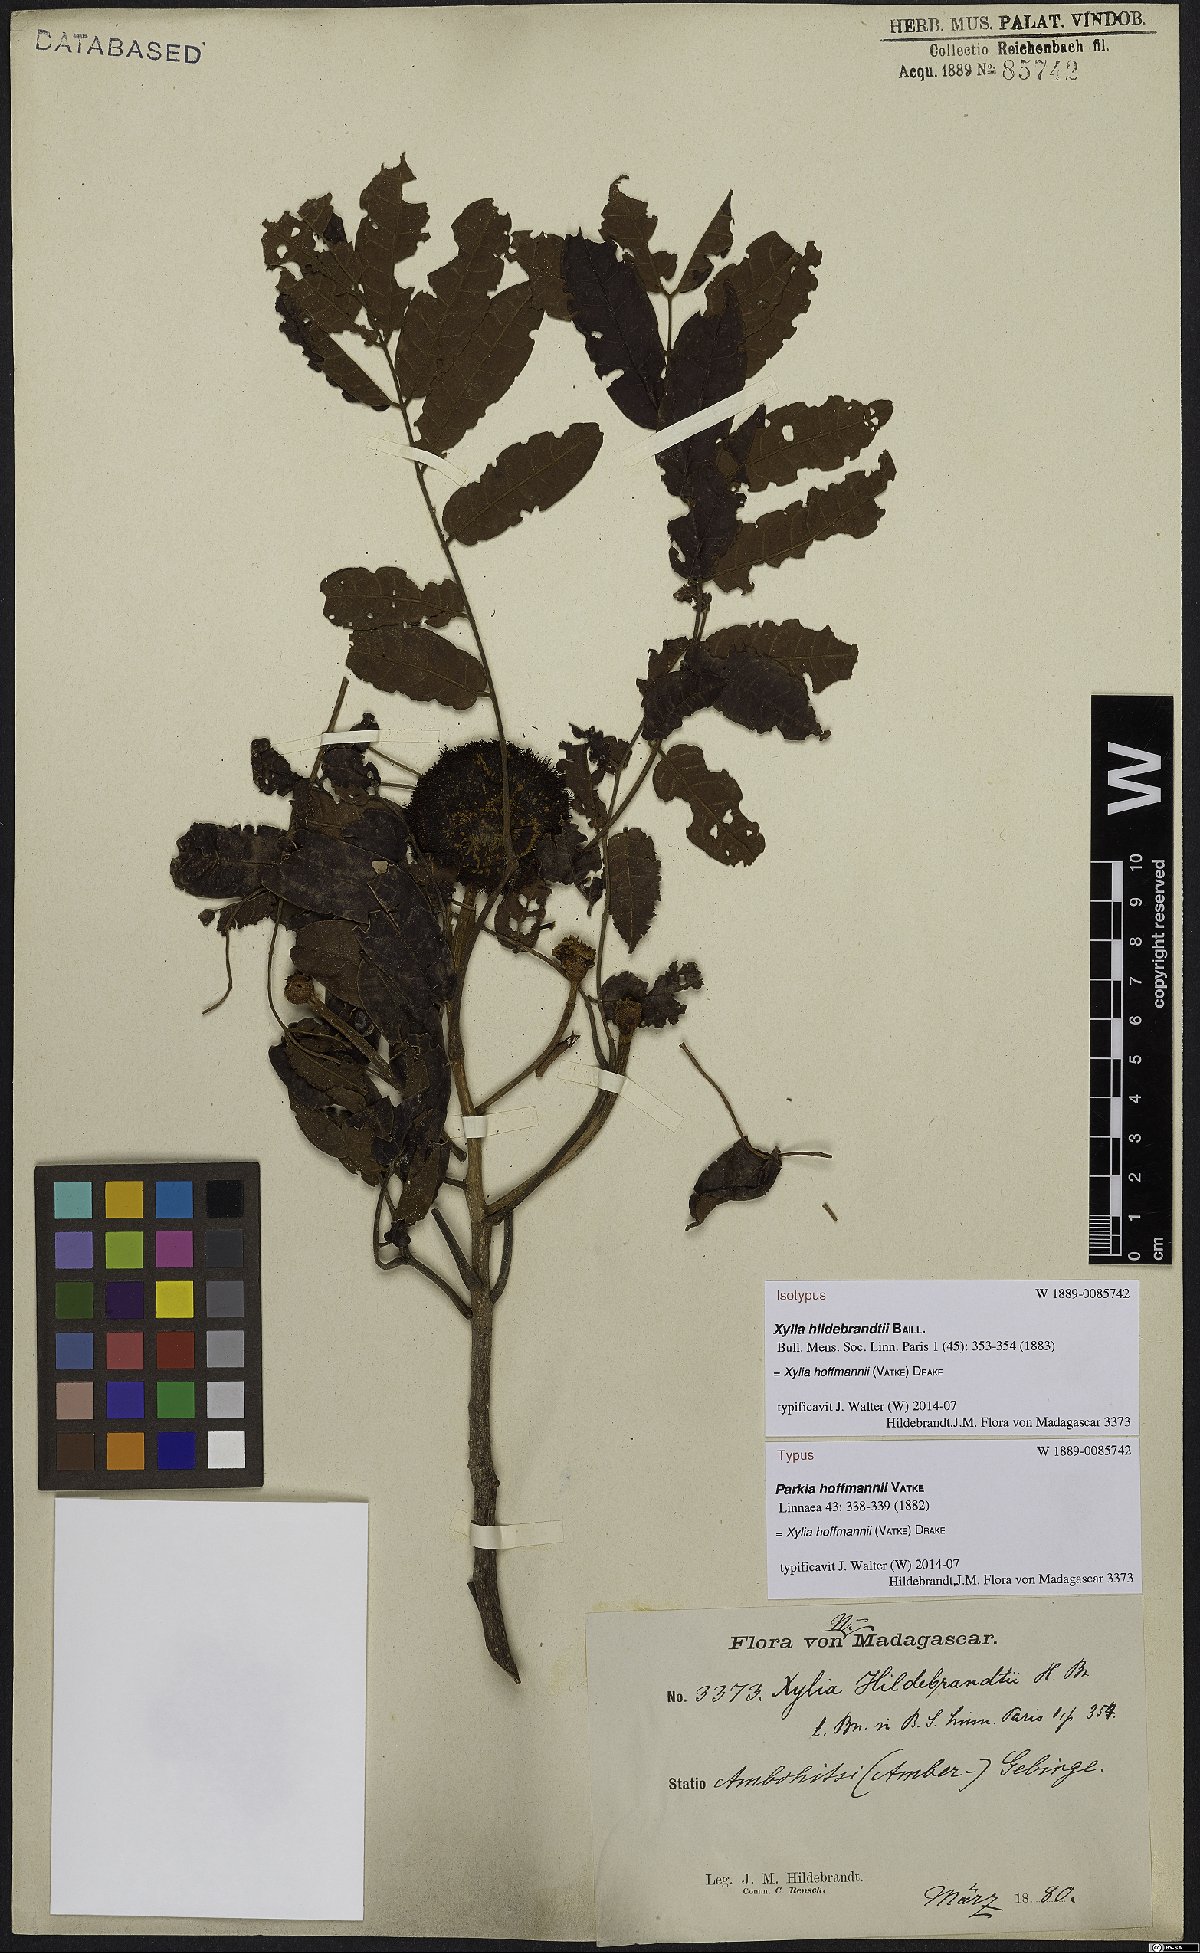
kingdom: Plantae
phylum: Tracheophyta
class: Magnoliopsida
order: Fabales
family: Fabaceae
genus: Xylia
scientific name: Xylia hoffmannii
